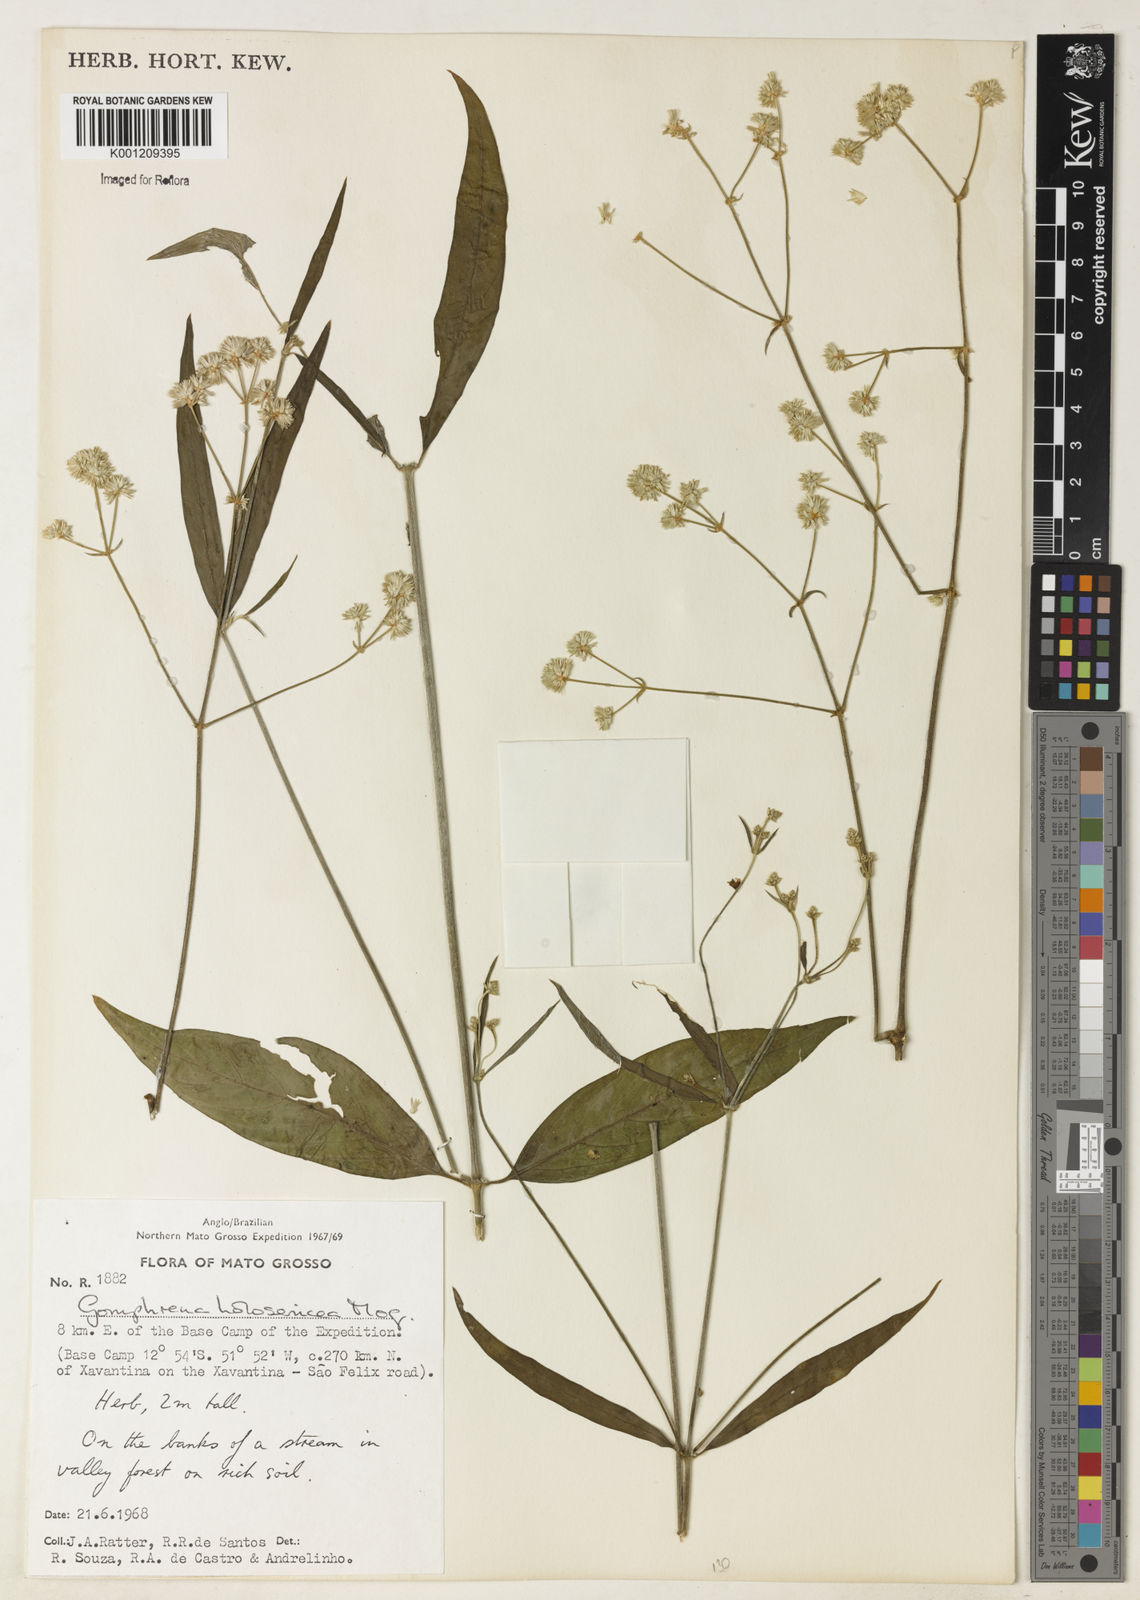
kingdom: Plantae
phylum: Tracheophyta
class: Magnoliopsida
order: Caryophyllales
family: Amaranthaceae
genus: Gomphrena
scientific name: Gomphrena vaga
